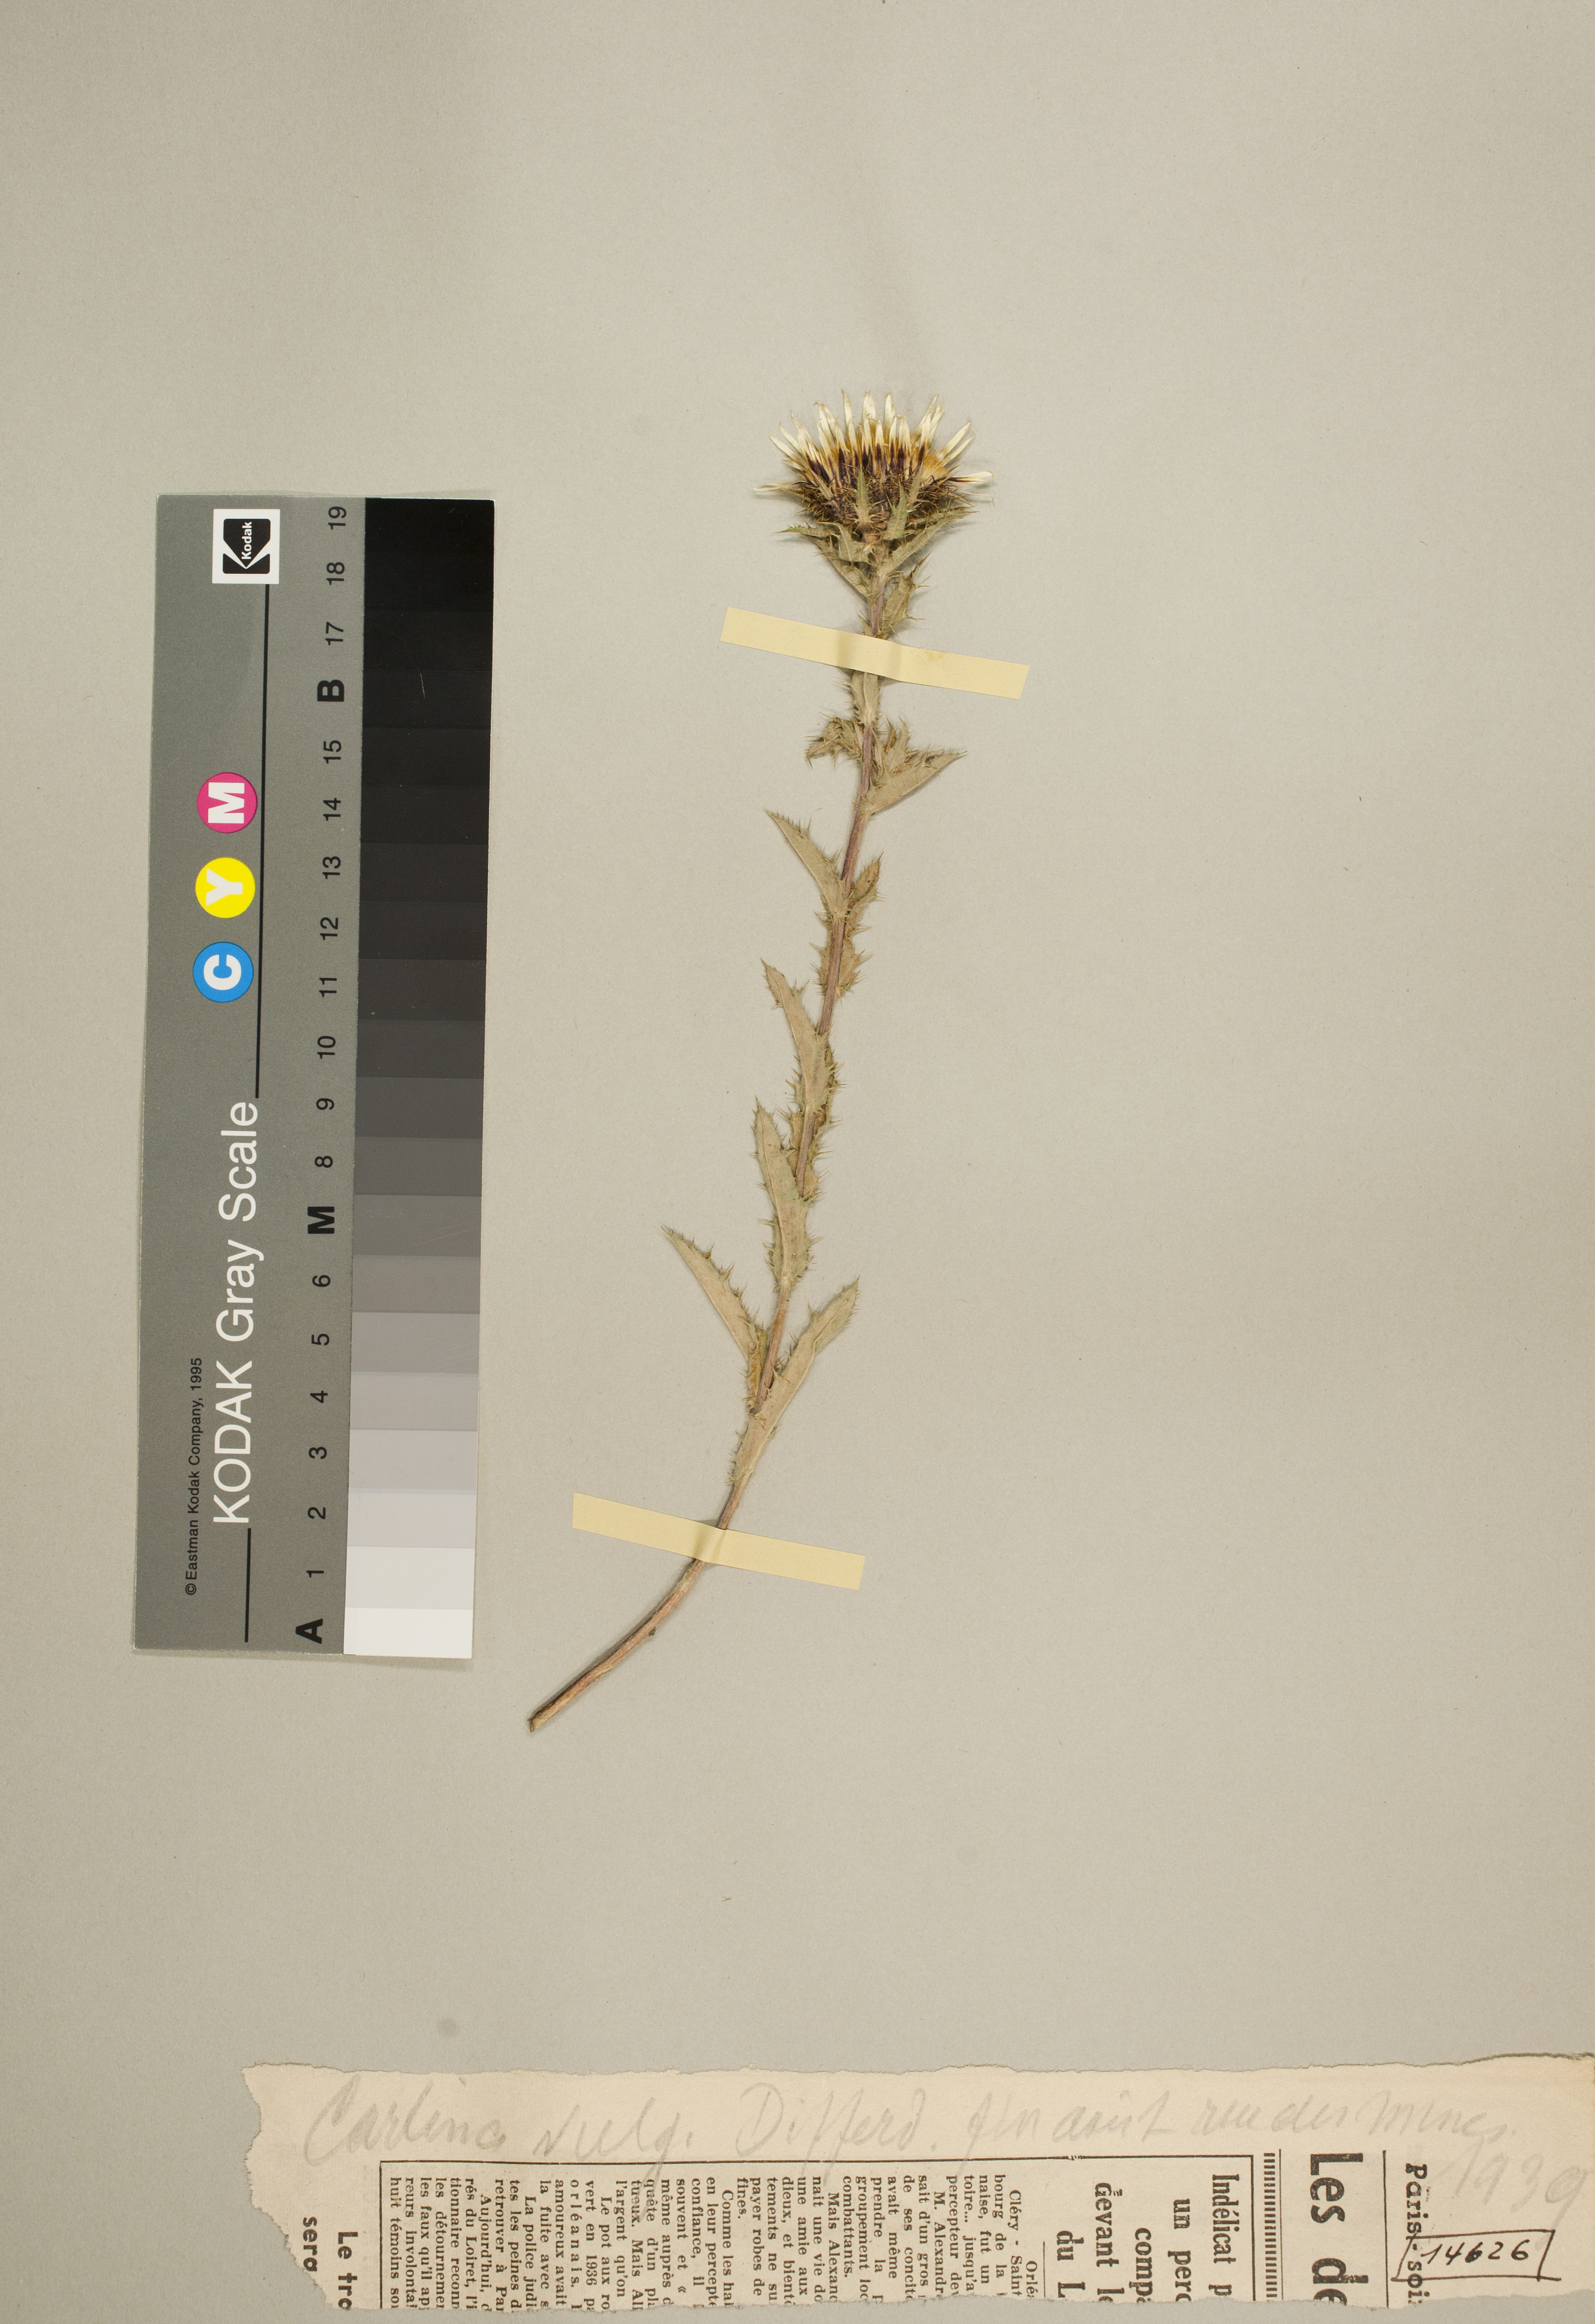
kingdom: Plantae
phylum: Tracheophyta
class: Magnoliopsida
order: Asterales
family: Asteraceae
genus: Carlina
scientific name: Carlina vulgaris
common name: Carline thistle
